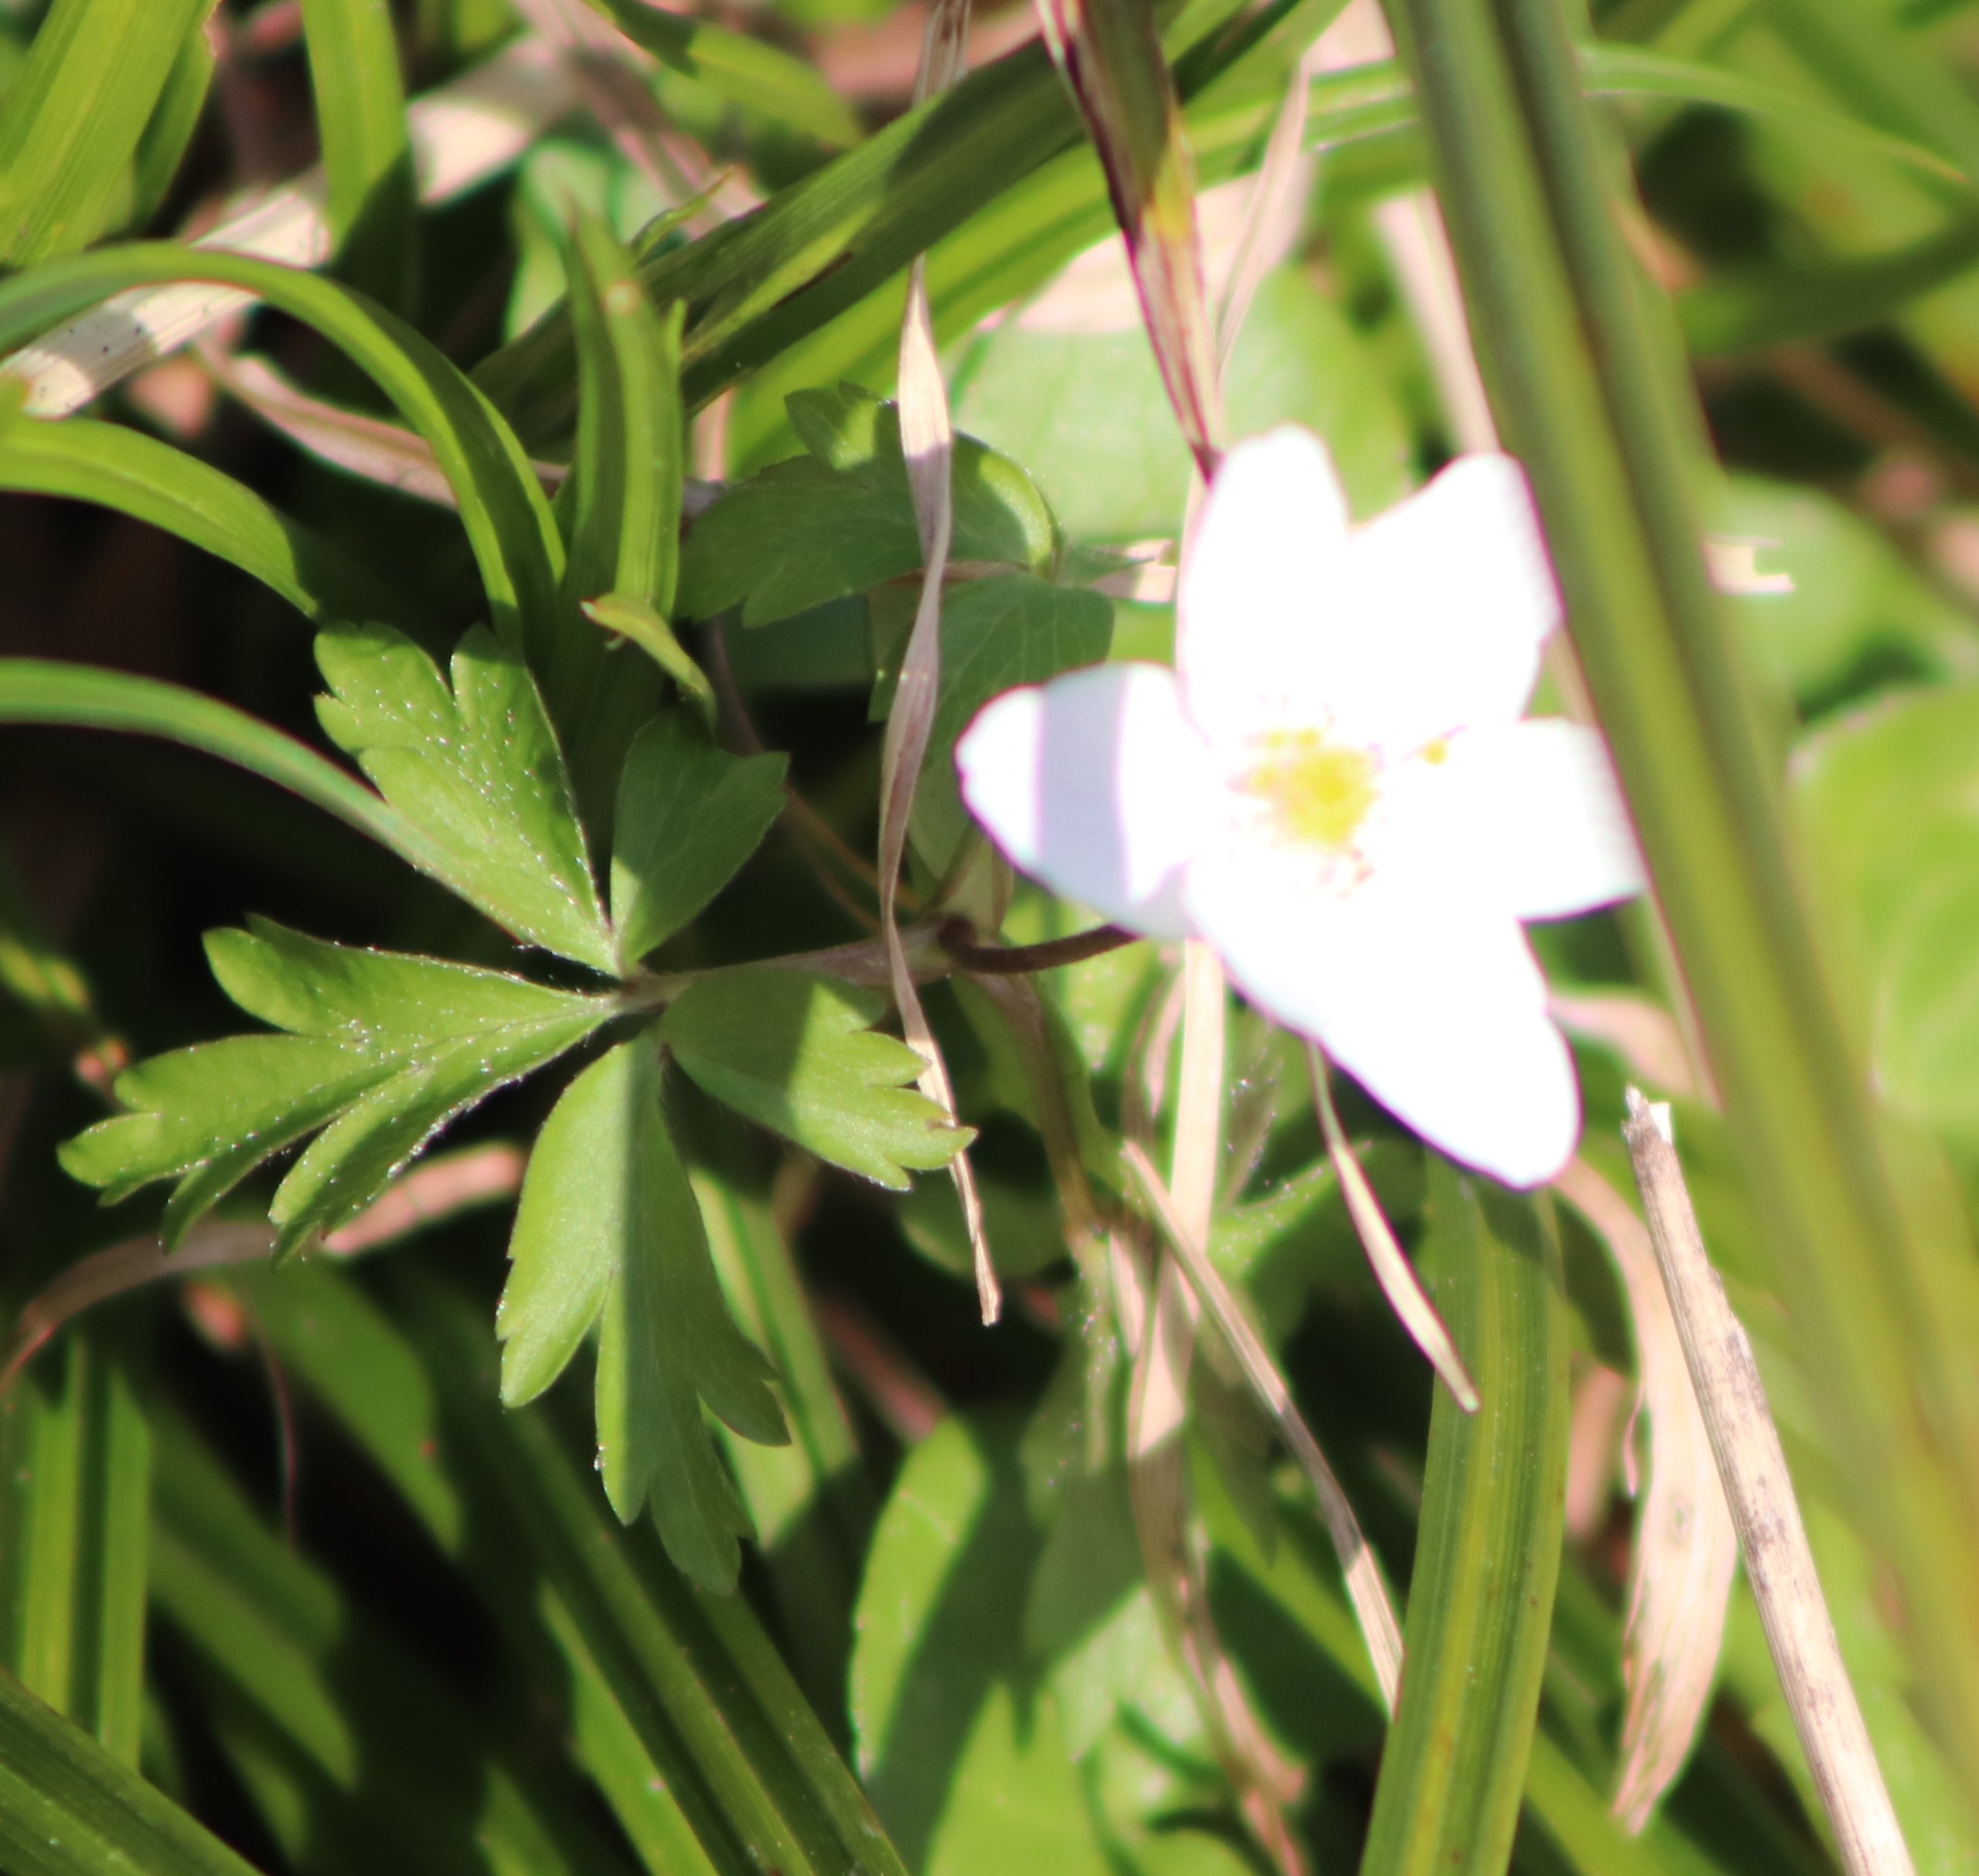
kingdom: Plantae
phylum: Tracheophyta
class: Magnoliopsida
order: Ranunculales
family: Ranunculaceae
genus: Anemone
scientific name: Anemone nemorosa
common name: Hvid anemone
